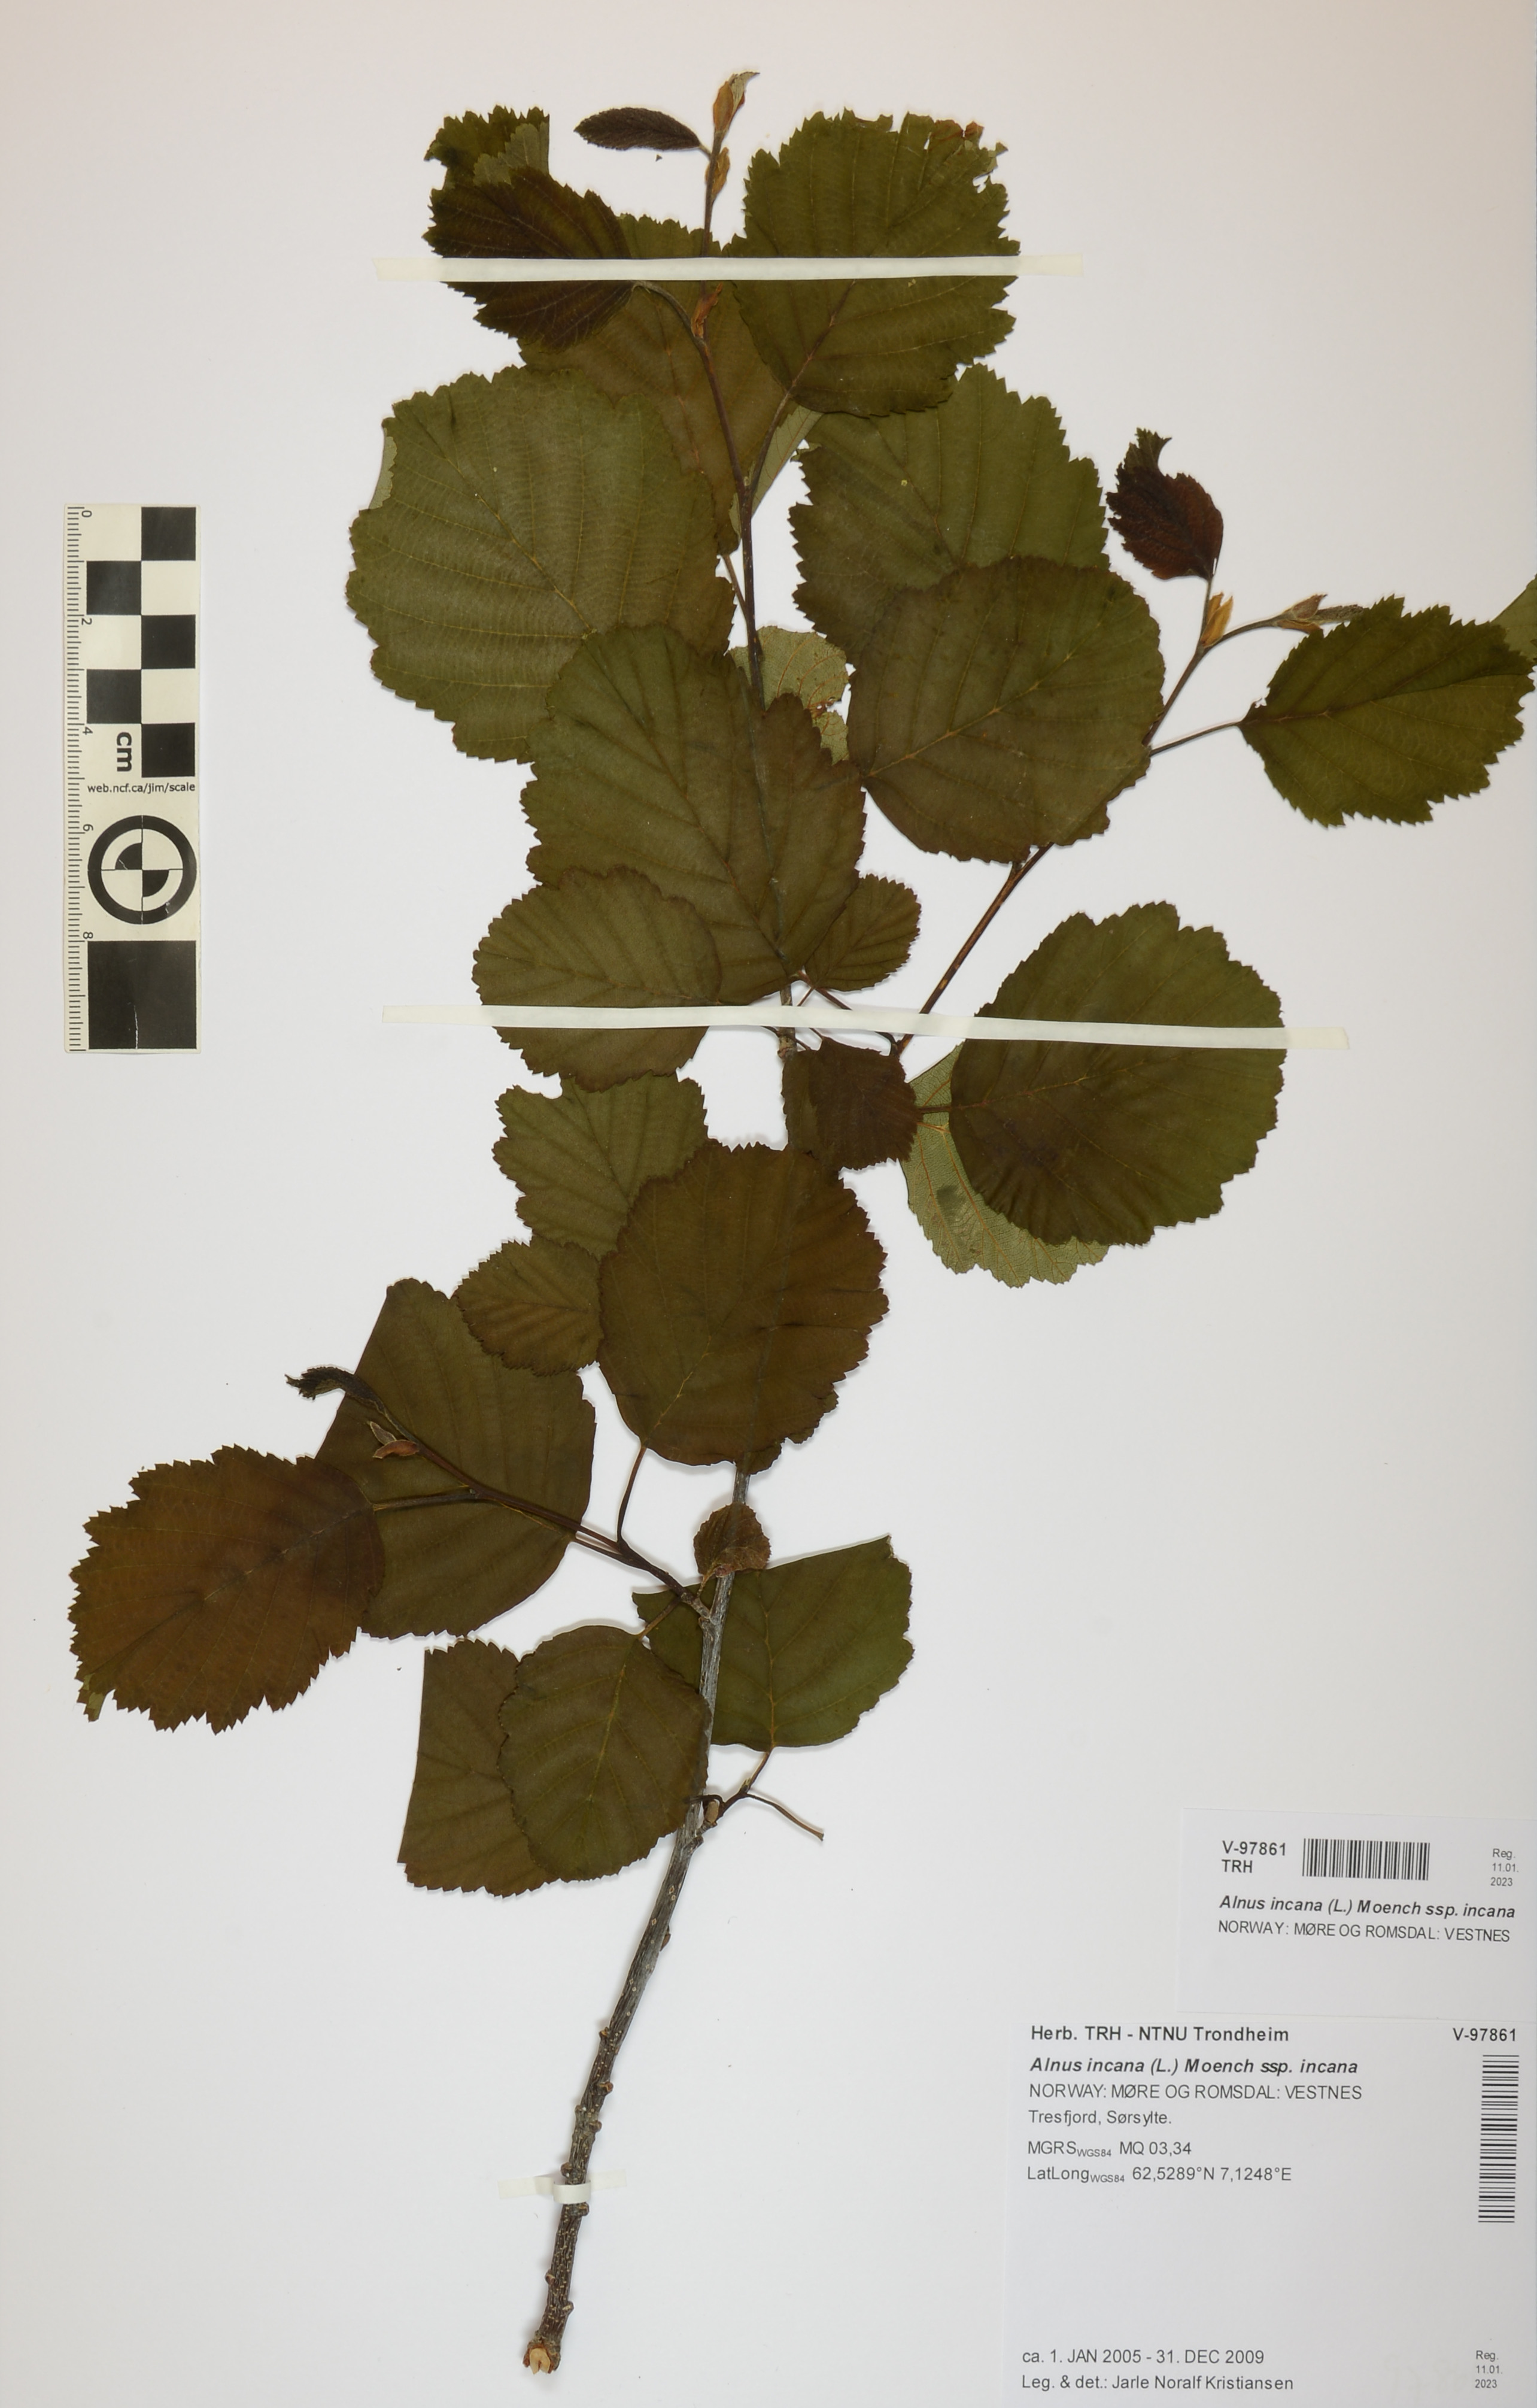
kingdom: Plantae
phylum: Tracheophyta
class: Magnoliopsida
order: Fagales
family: Betulaceae
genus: Alnus
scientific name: Alnus incana
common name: Grey alder
